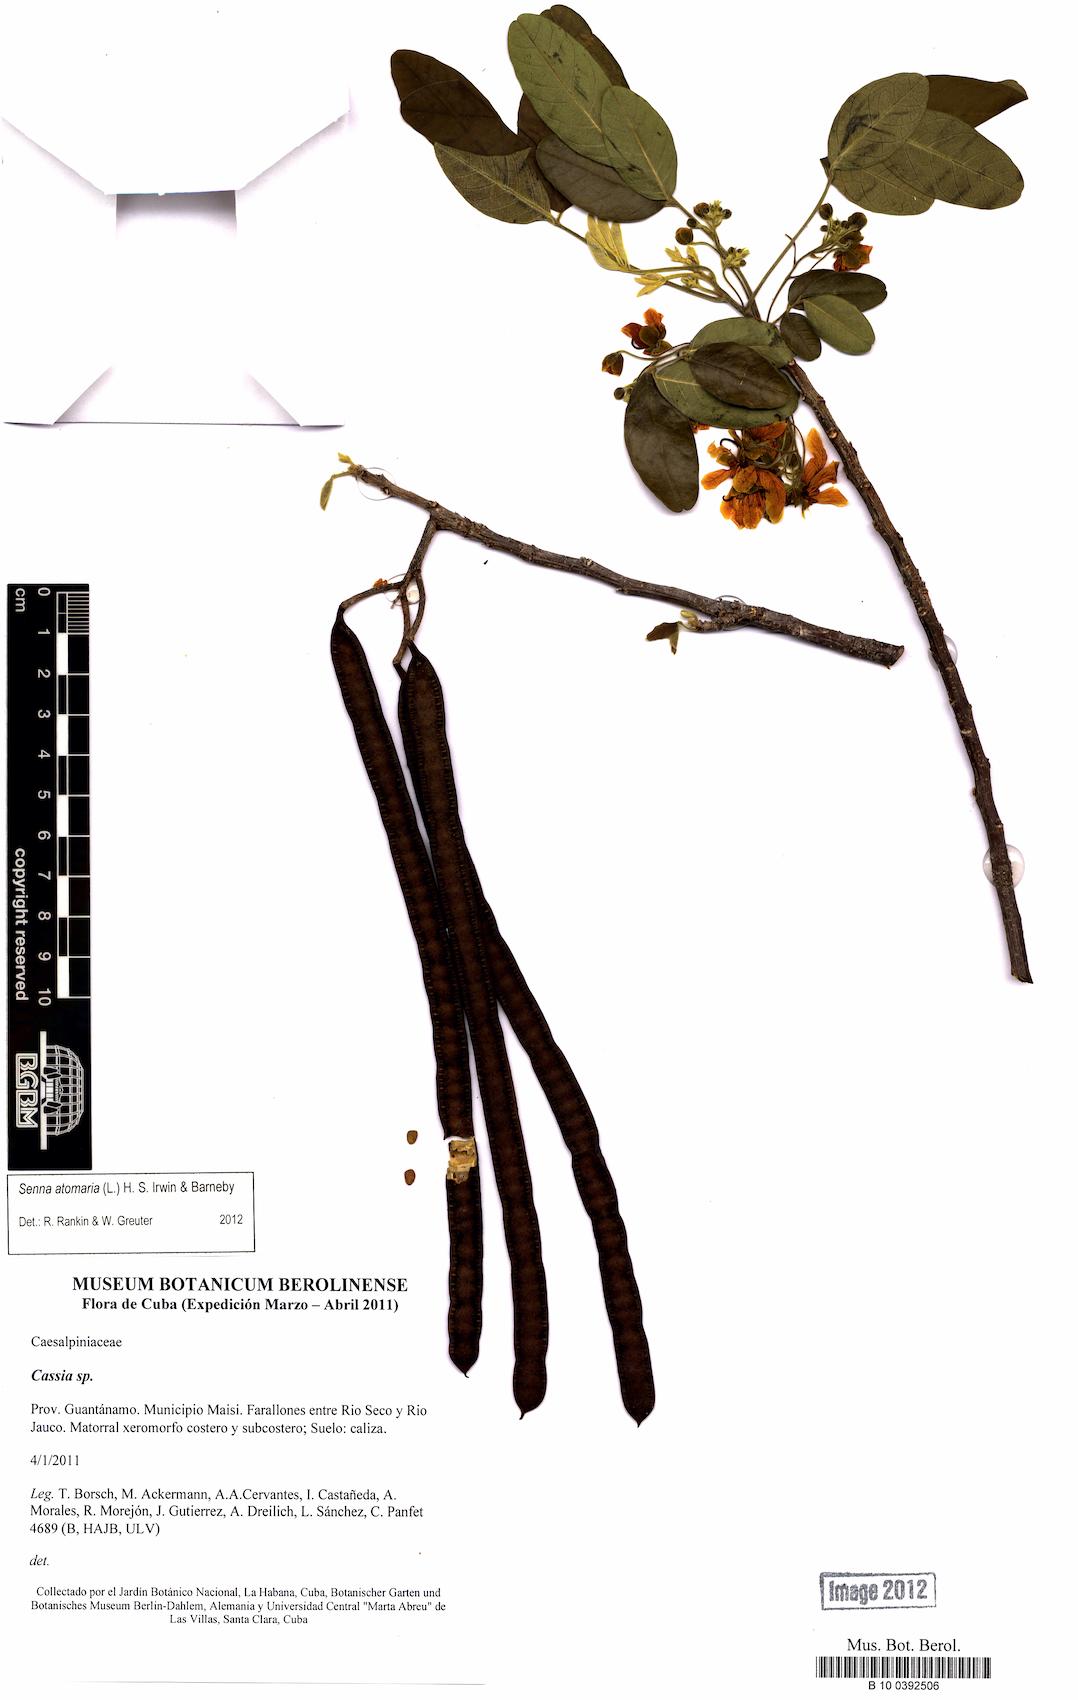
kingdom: Plantae
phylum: Tracheophyta
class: Magnoliopsida
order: Fabales
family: Fabaceae
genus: Senna
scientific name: Senna atomaria
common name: Flor de san jose
